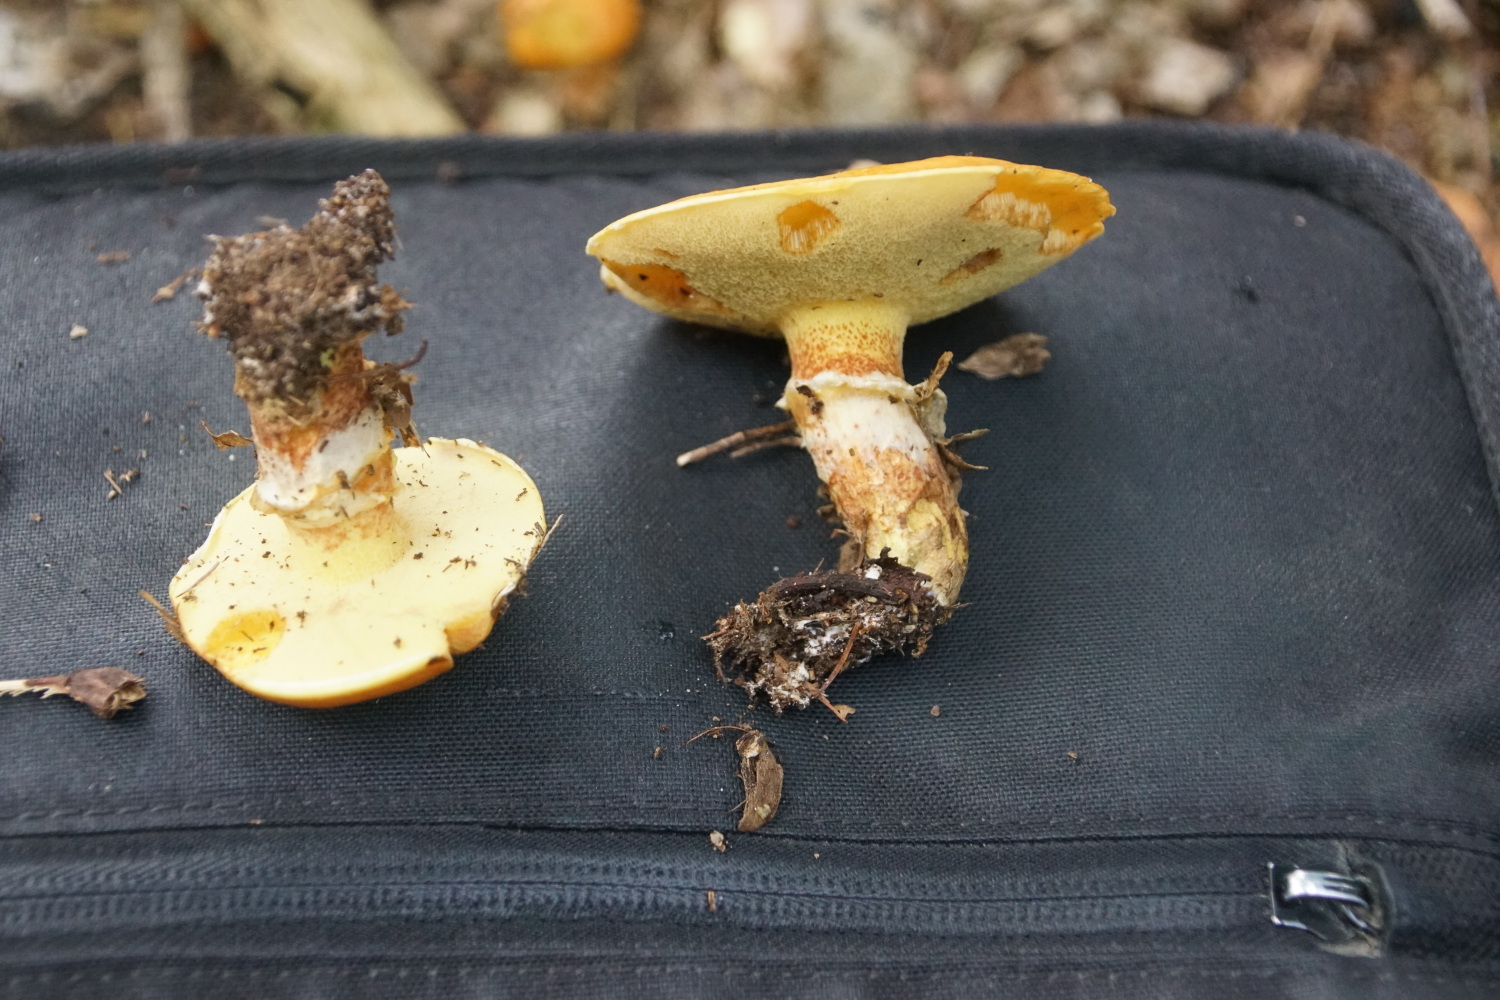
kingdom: Fungi
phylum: Basidiomycota
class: Agaricomycetes
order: Boletales
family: Suillaceae
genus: Suillus
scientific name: Suillus grevillei
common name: lærke-slimrørhat
